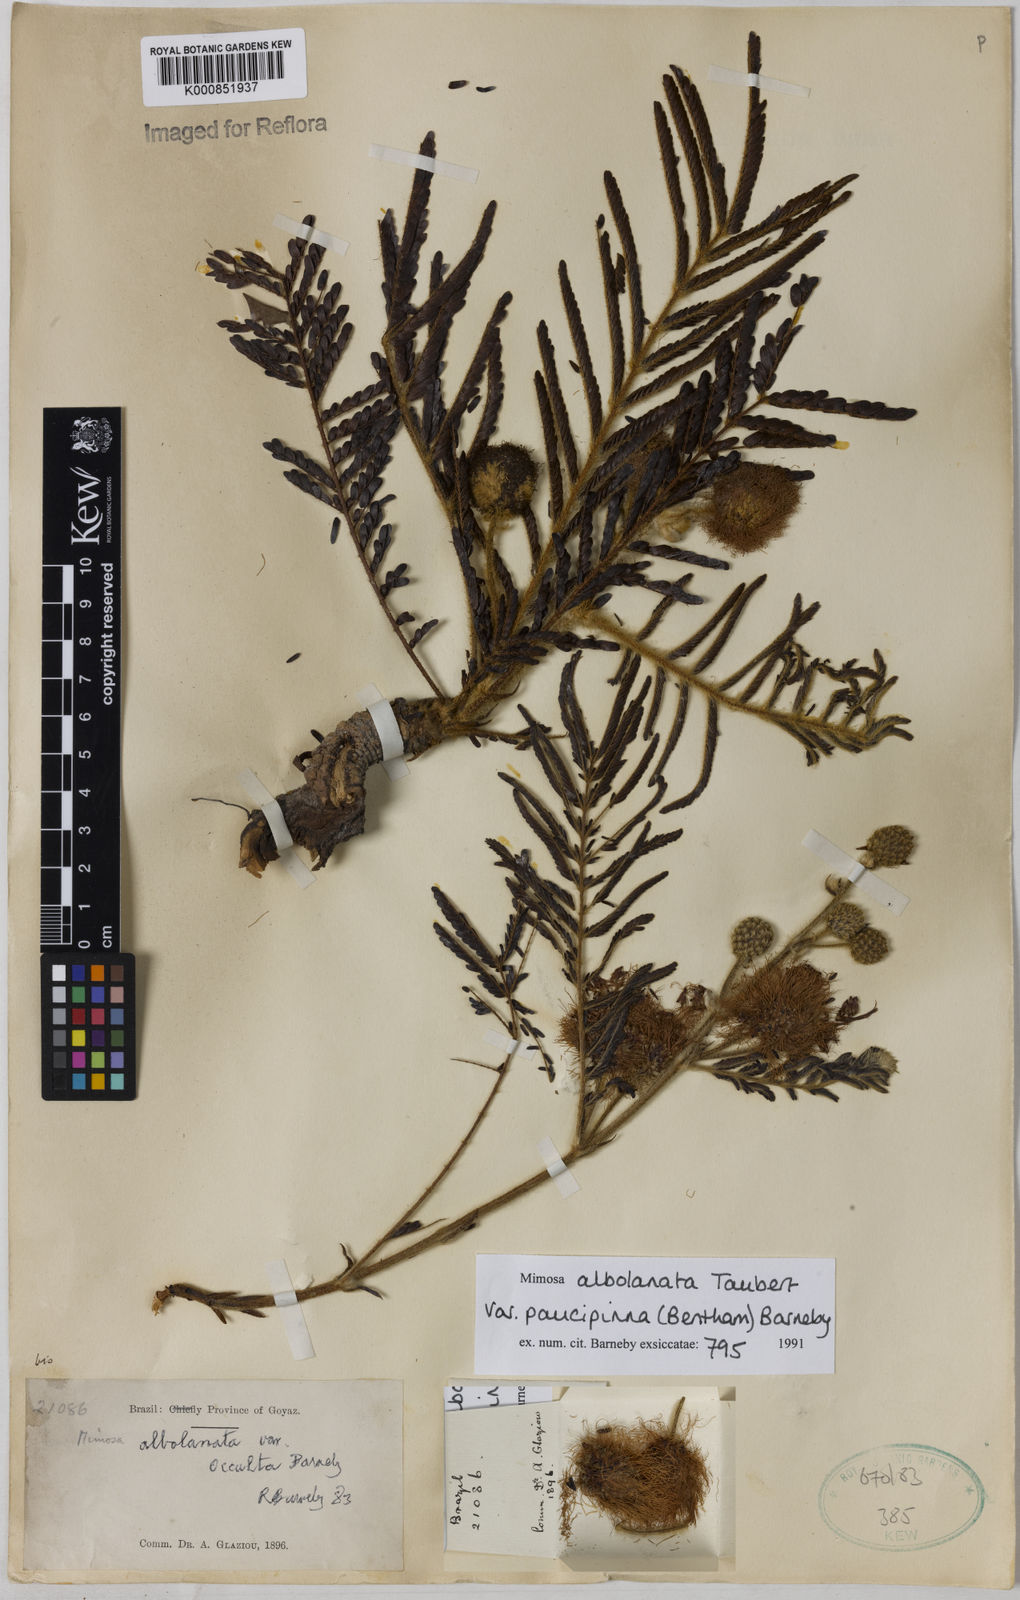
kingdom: Plantae
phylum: Tracheophyta
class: Magnoliopsida
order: Fabales
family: Fabaceae
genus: Mimosa
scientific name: Mimosa albolanata
